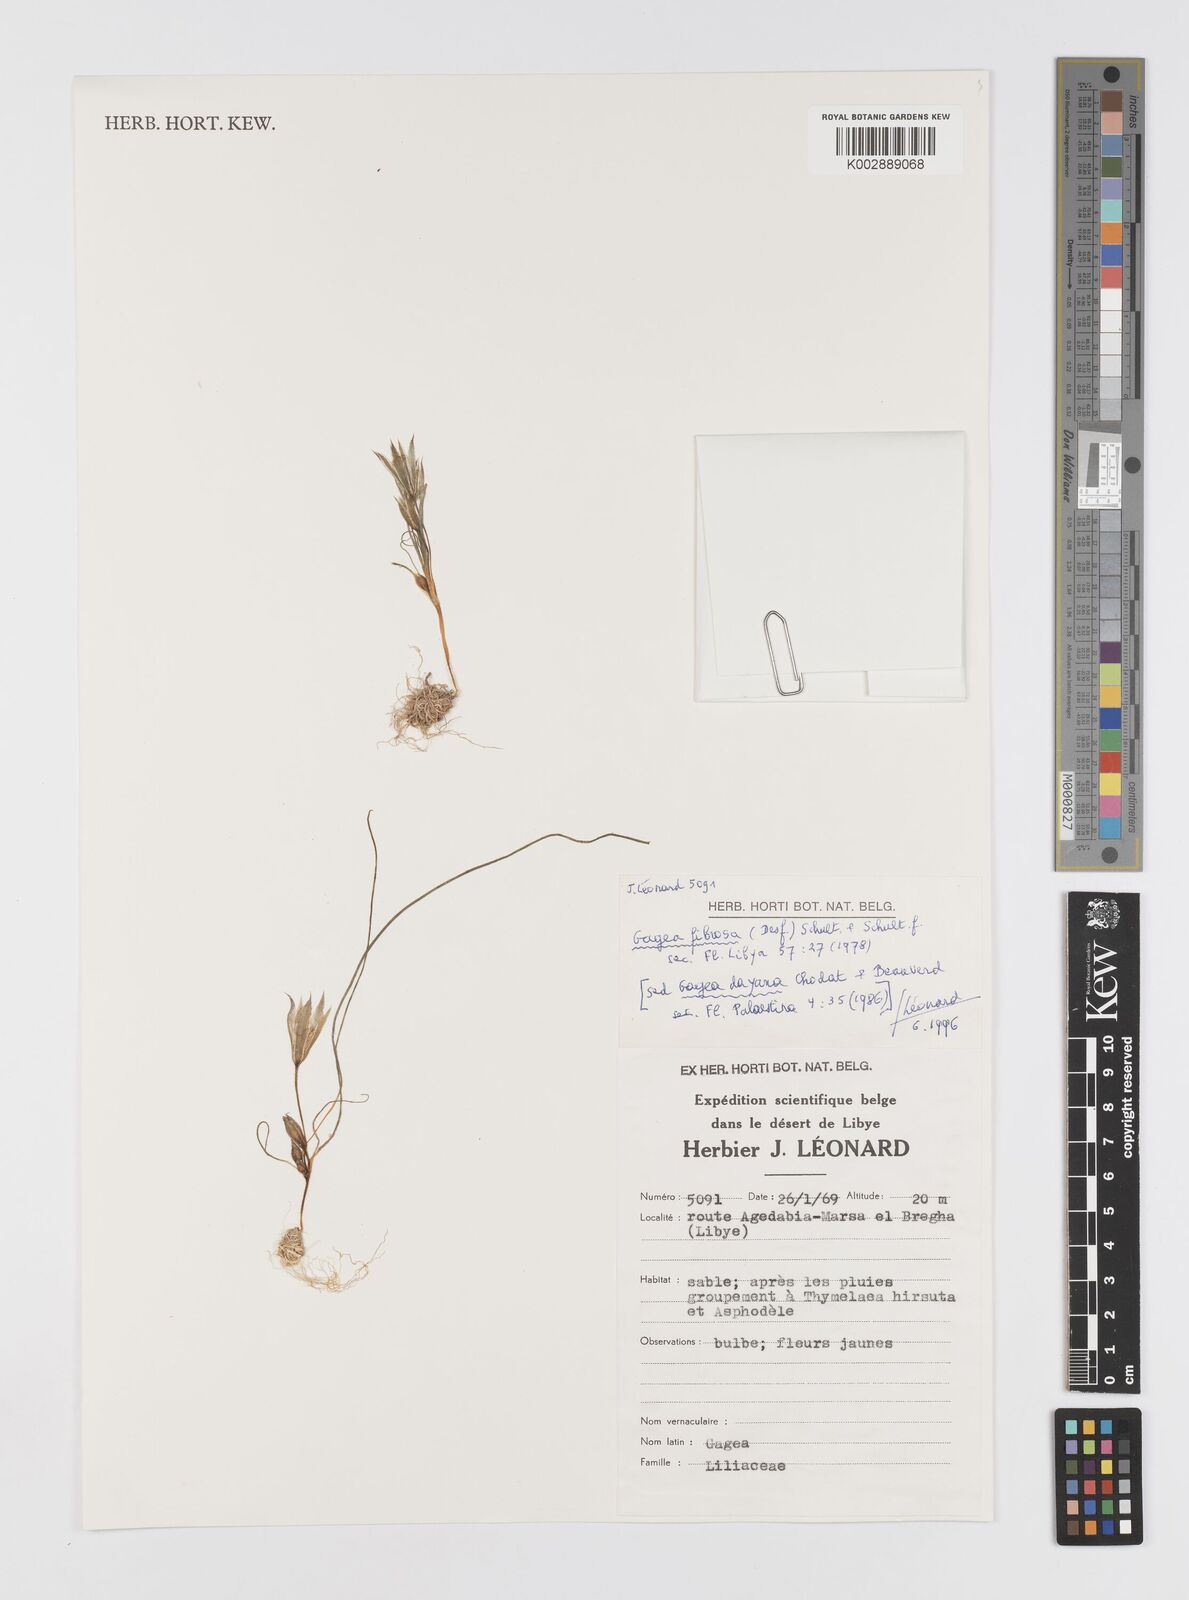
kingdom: Plantae
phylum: Tracheophyta
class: Liliopsida
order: Liliales
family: Liliaceae
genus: Gagea
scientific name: Gagea fibrosa
